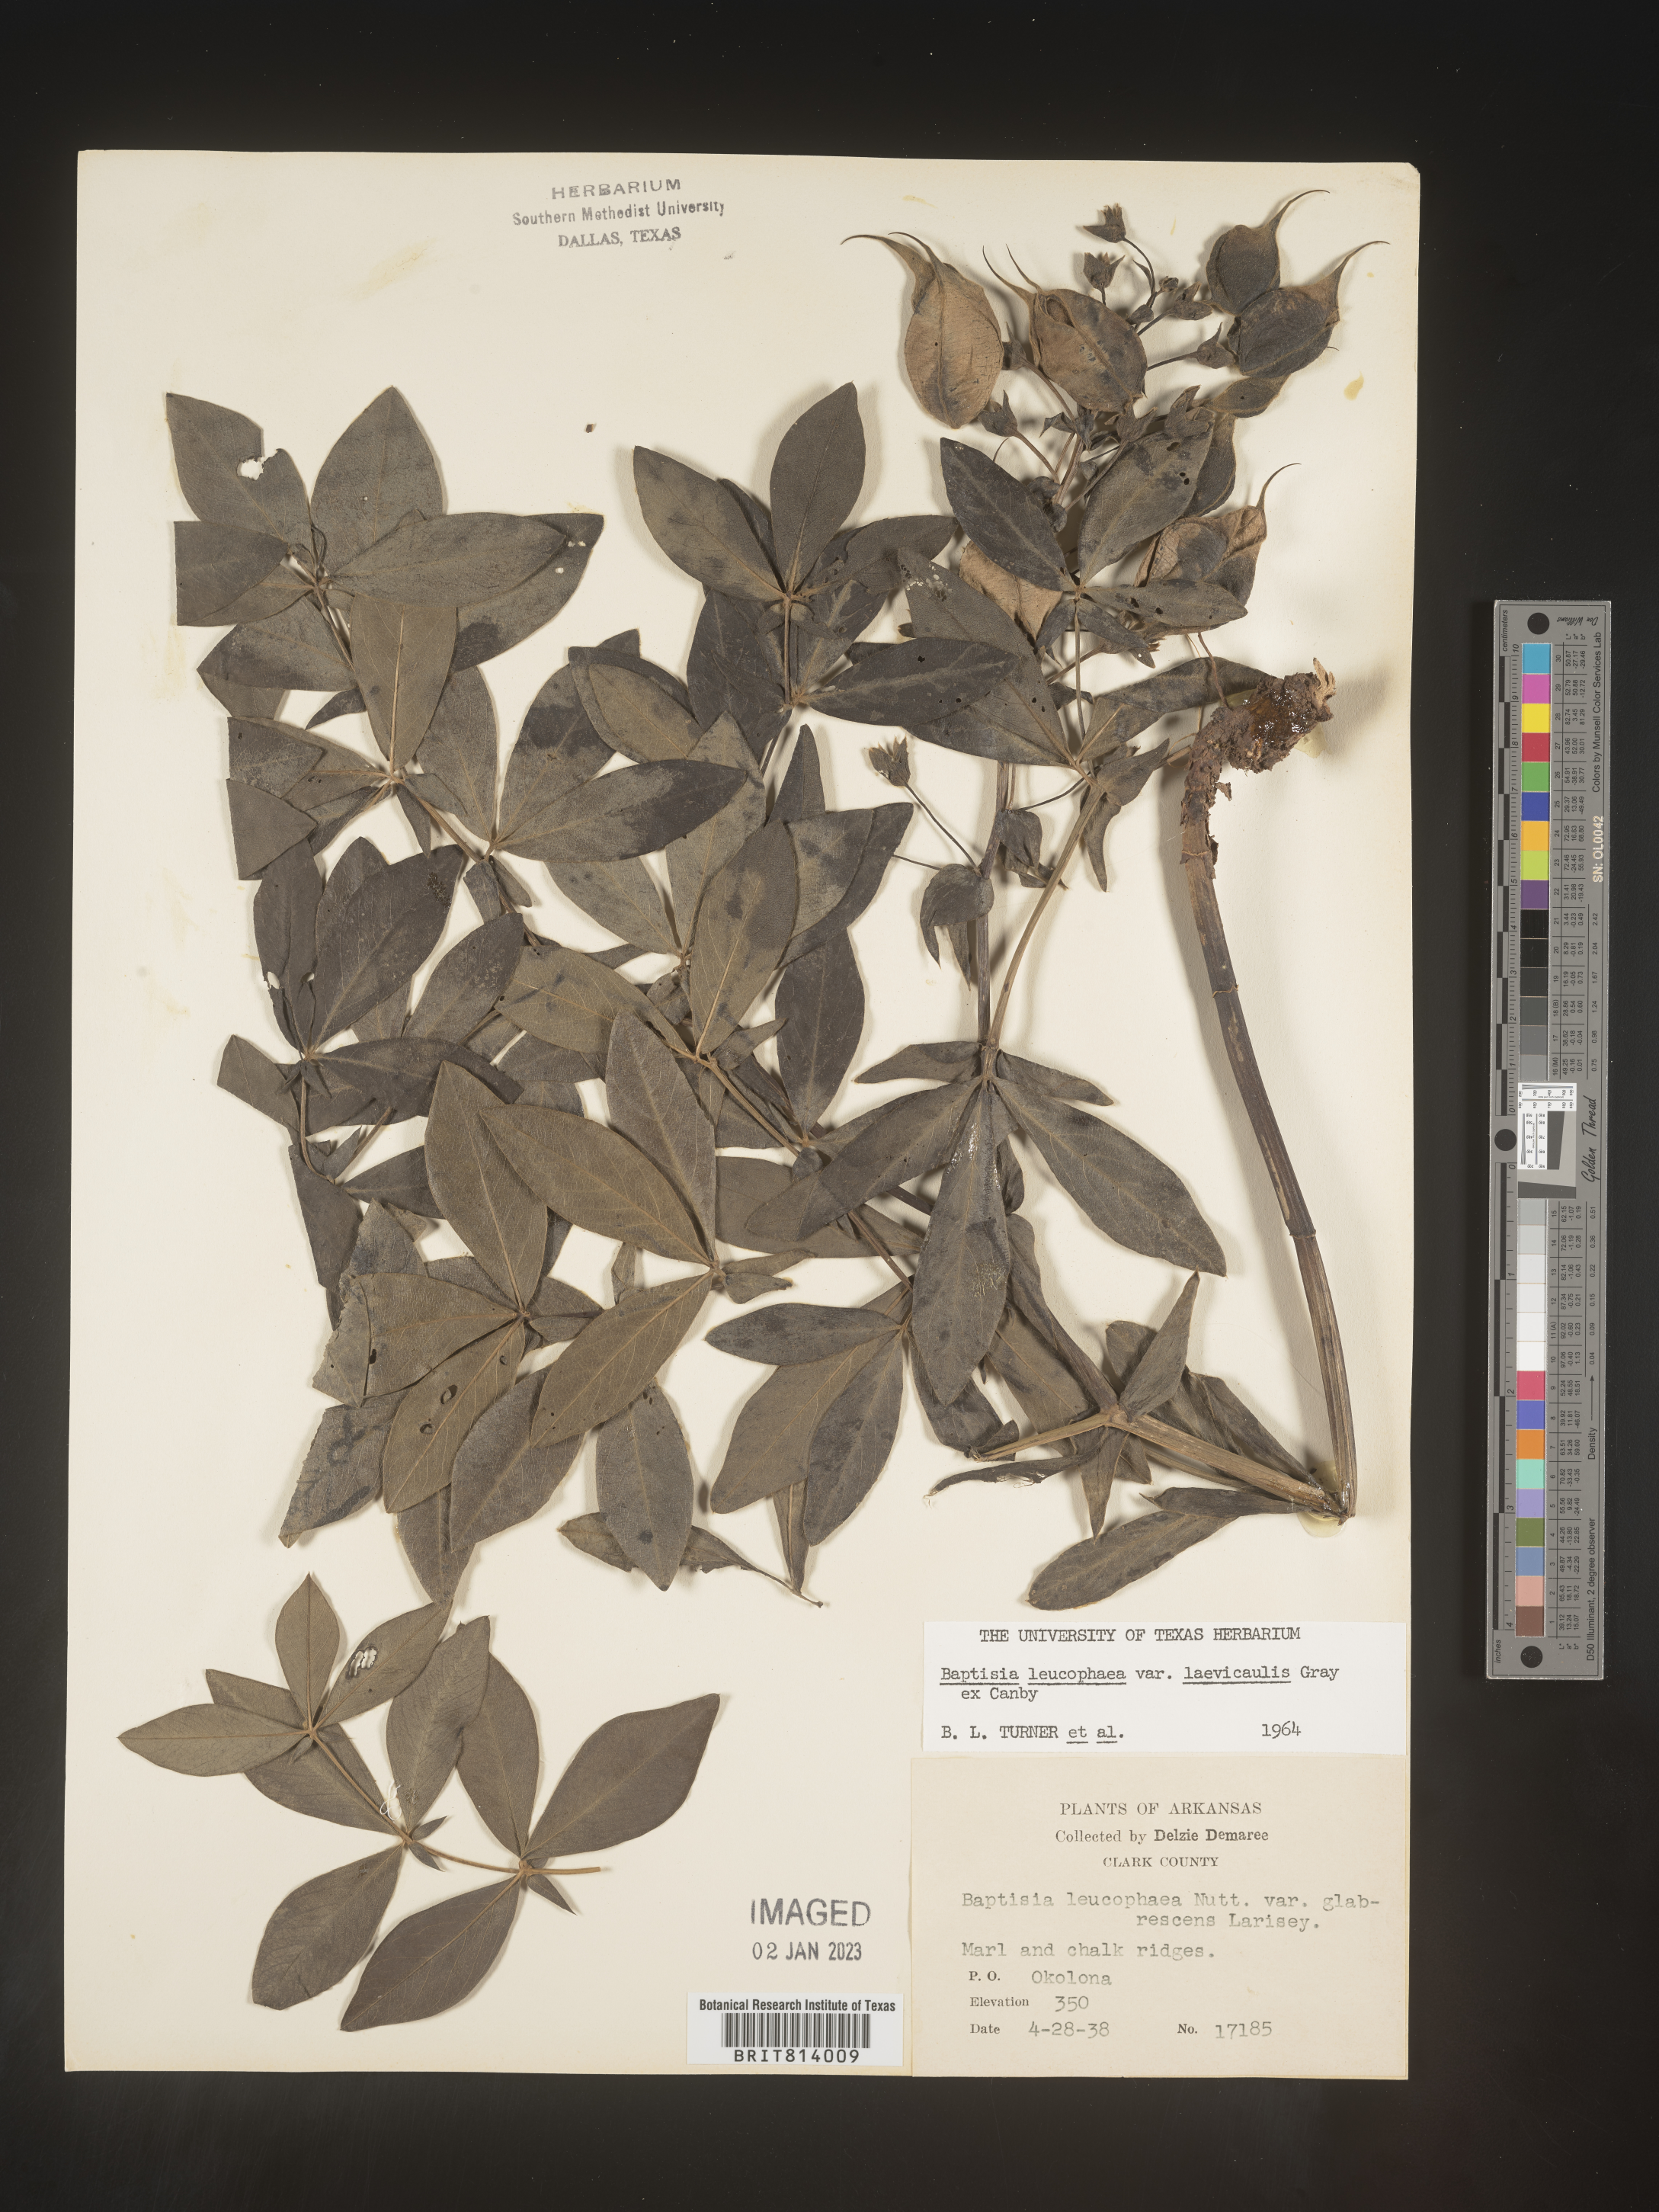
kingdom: Plantae
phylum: Tracheophyta
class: Magnoliopsida
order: Fabales
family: Fabaceae
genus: Baptisia
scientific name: Baptisia bracteata
